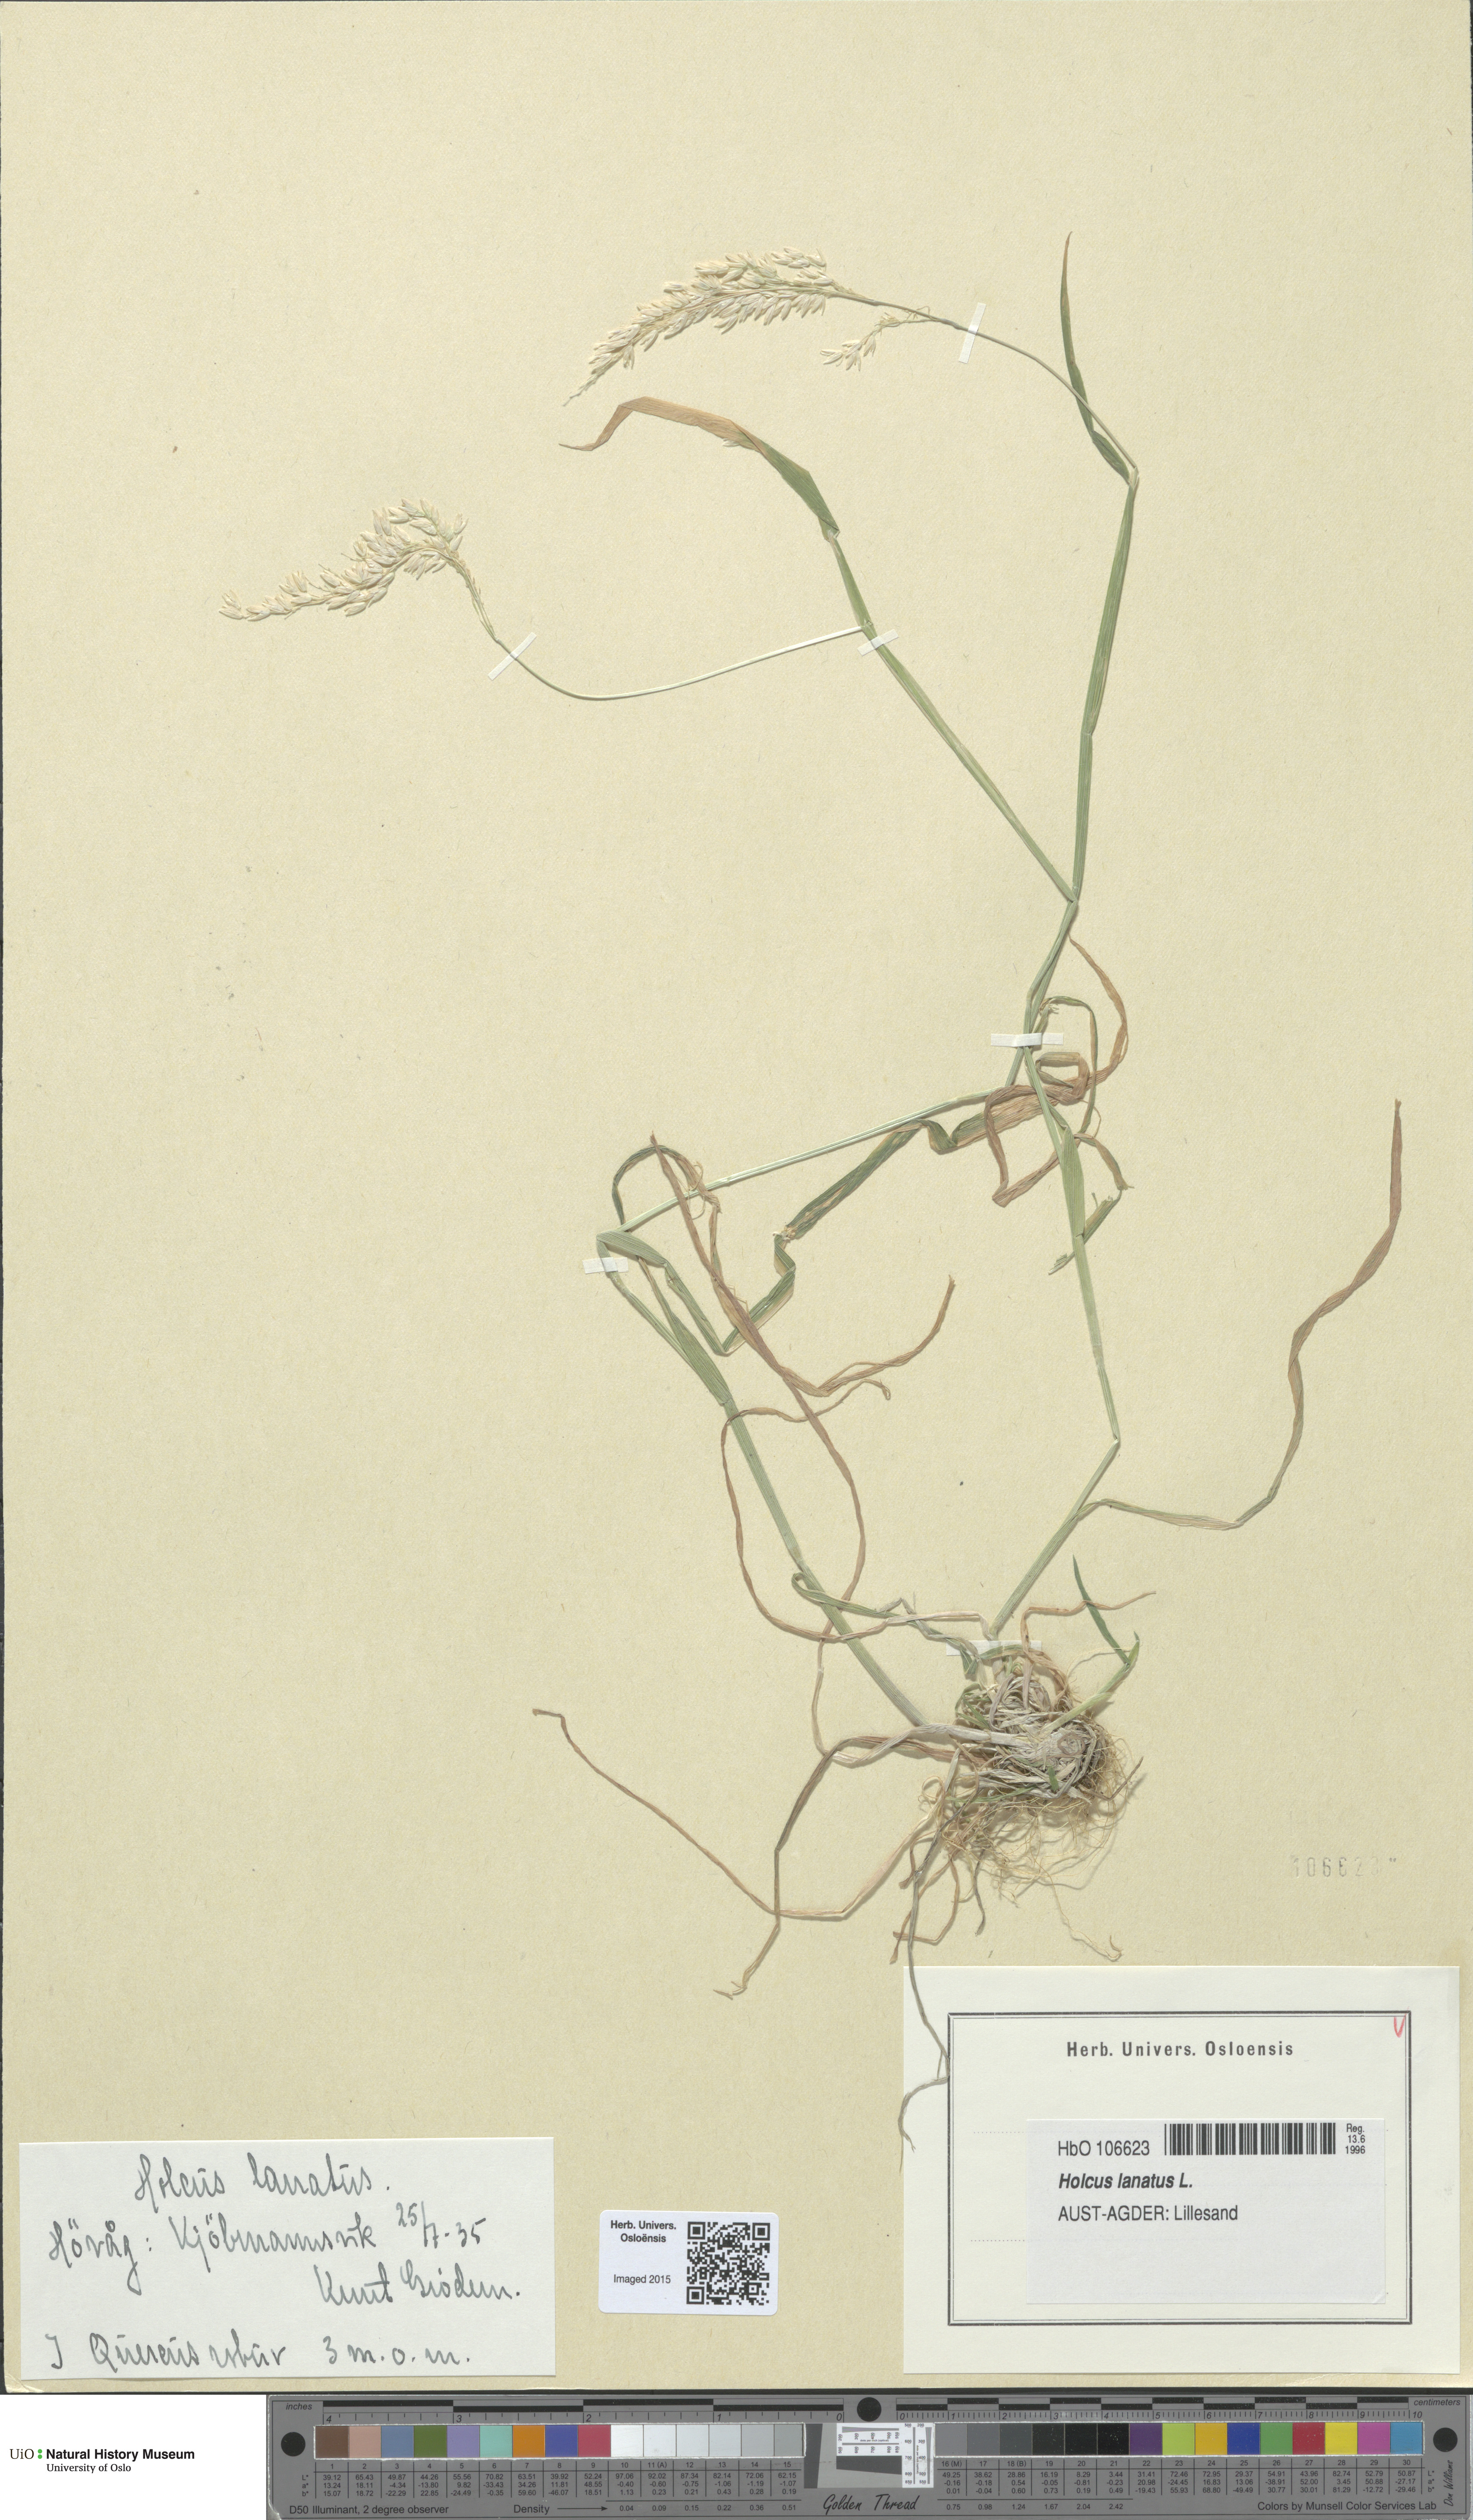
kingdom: Plantae
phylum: Tracheophyta
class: Liliopsida
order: Poales
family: Poaceae
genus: Holcus
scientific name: Holcus lanatus
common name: Yorkshire-fog
